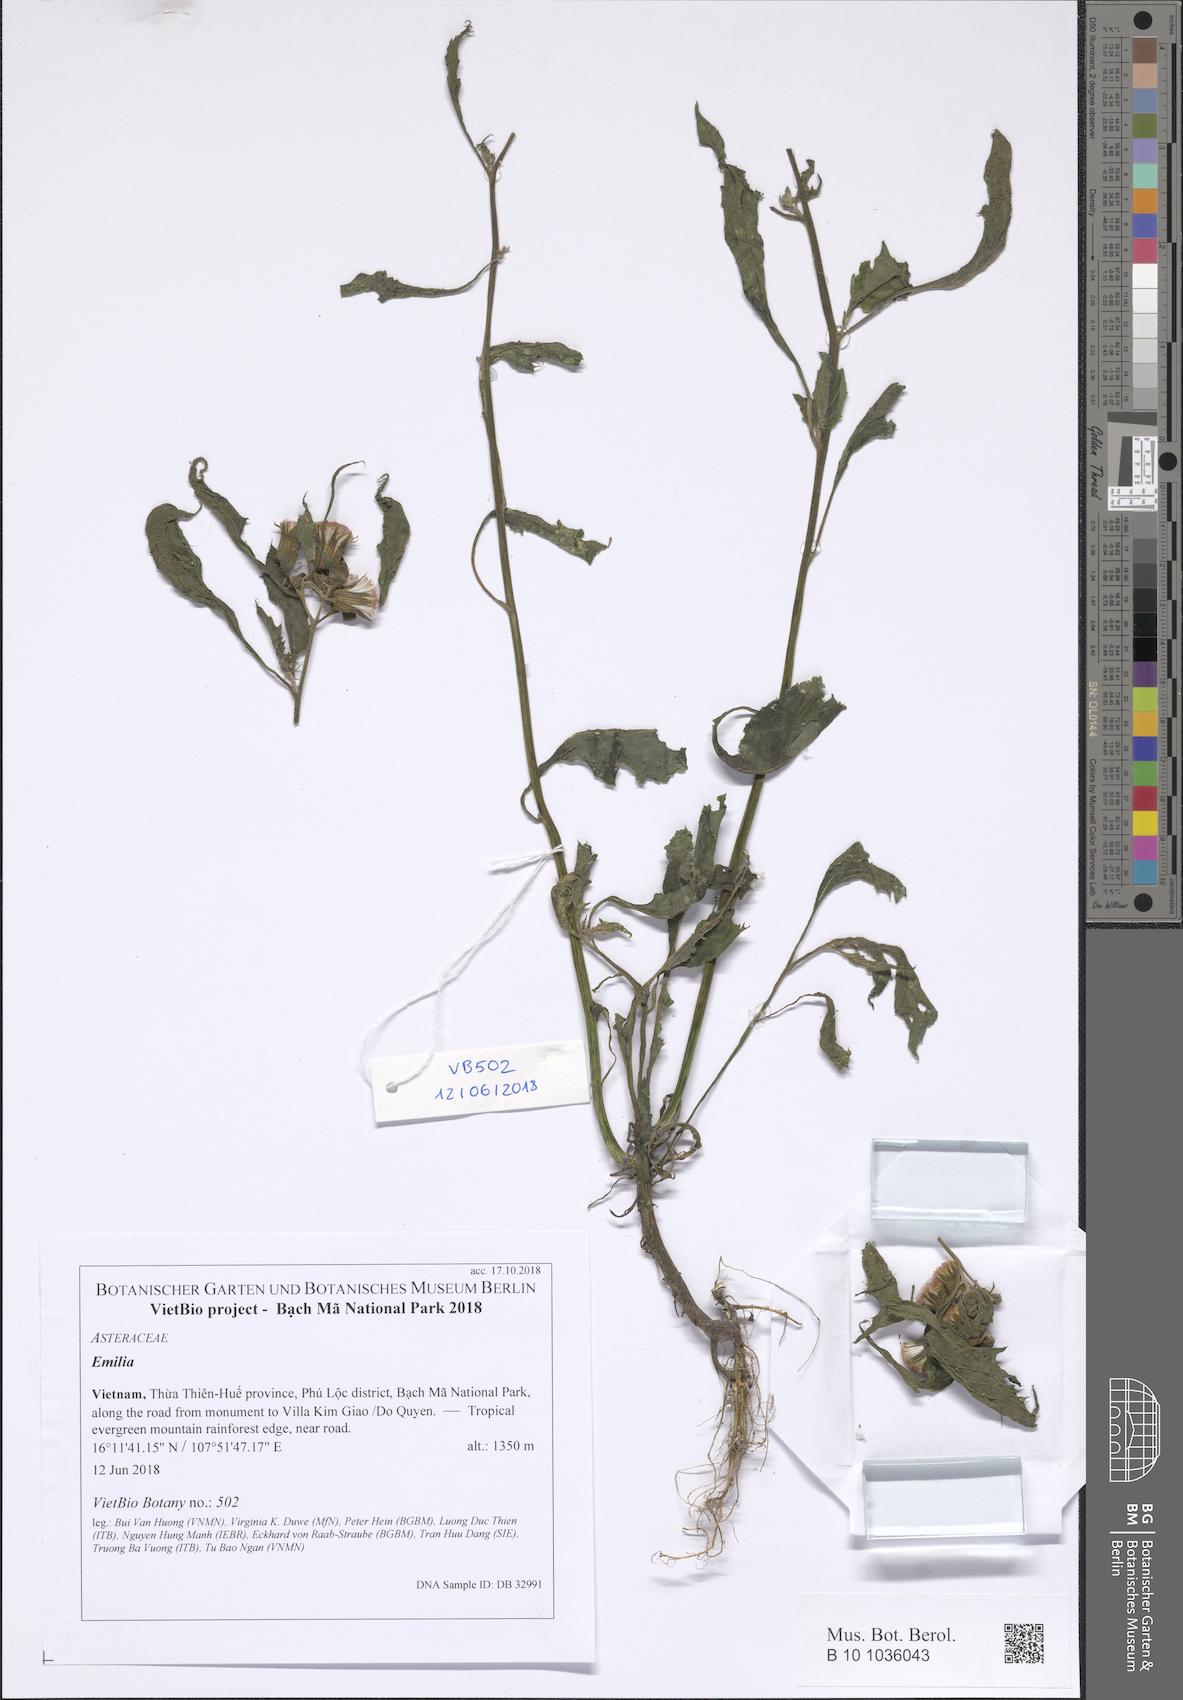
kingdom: Plantae
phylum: Tracheophyta
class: Magnoliopsida
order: Asterales
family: Asteraceae
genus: Emilia
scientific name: Emilia
